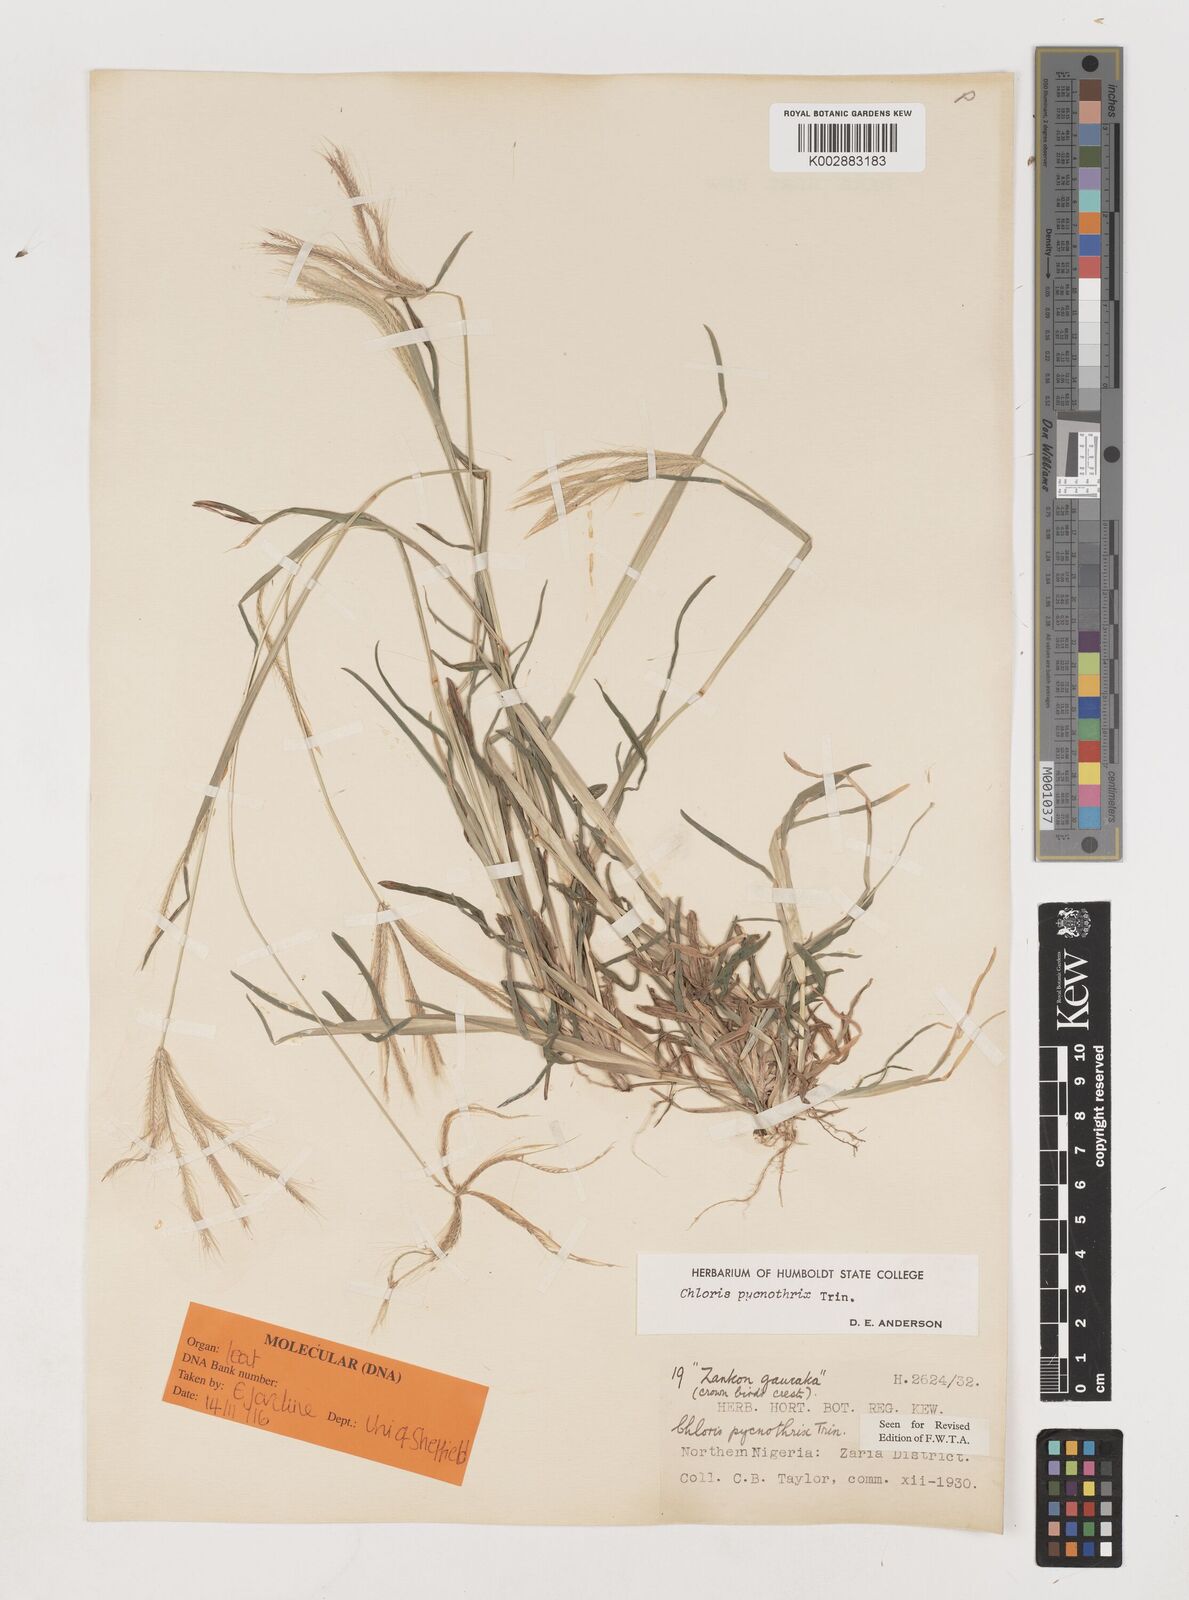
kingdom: Plantae
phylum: Tracheophyta
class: Liliopsida
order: Poales
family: Poaceae
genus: Chloris
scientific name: Chloris pycnothrix
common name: Spiderweb chloris
